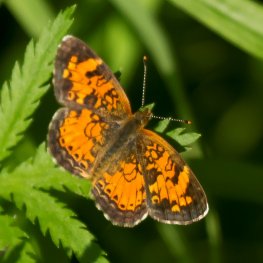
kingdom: Animalia
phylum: Arthropoda
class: Insecta
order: Lepidoptera
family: Nymphalidae
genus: Phyciodes
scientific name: Phyciodes tharos
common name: Northern Crescent
